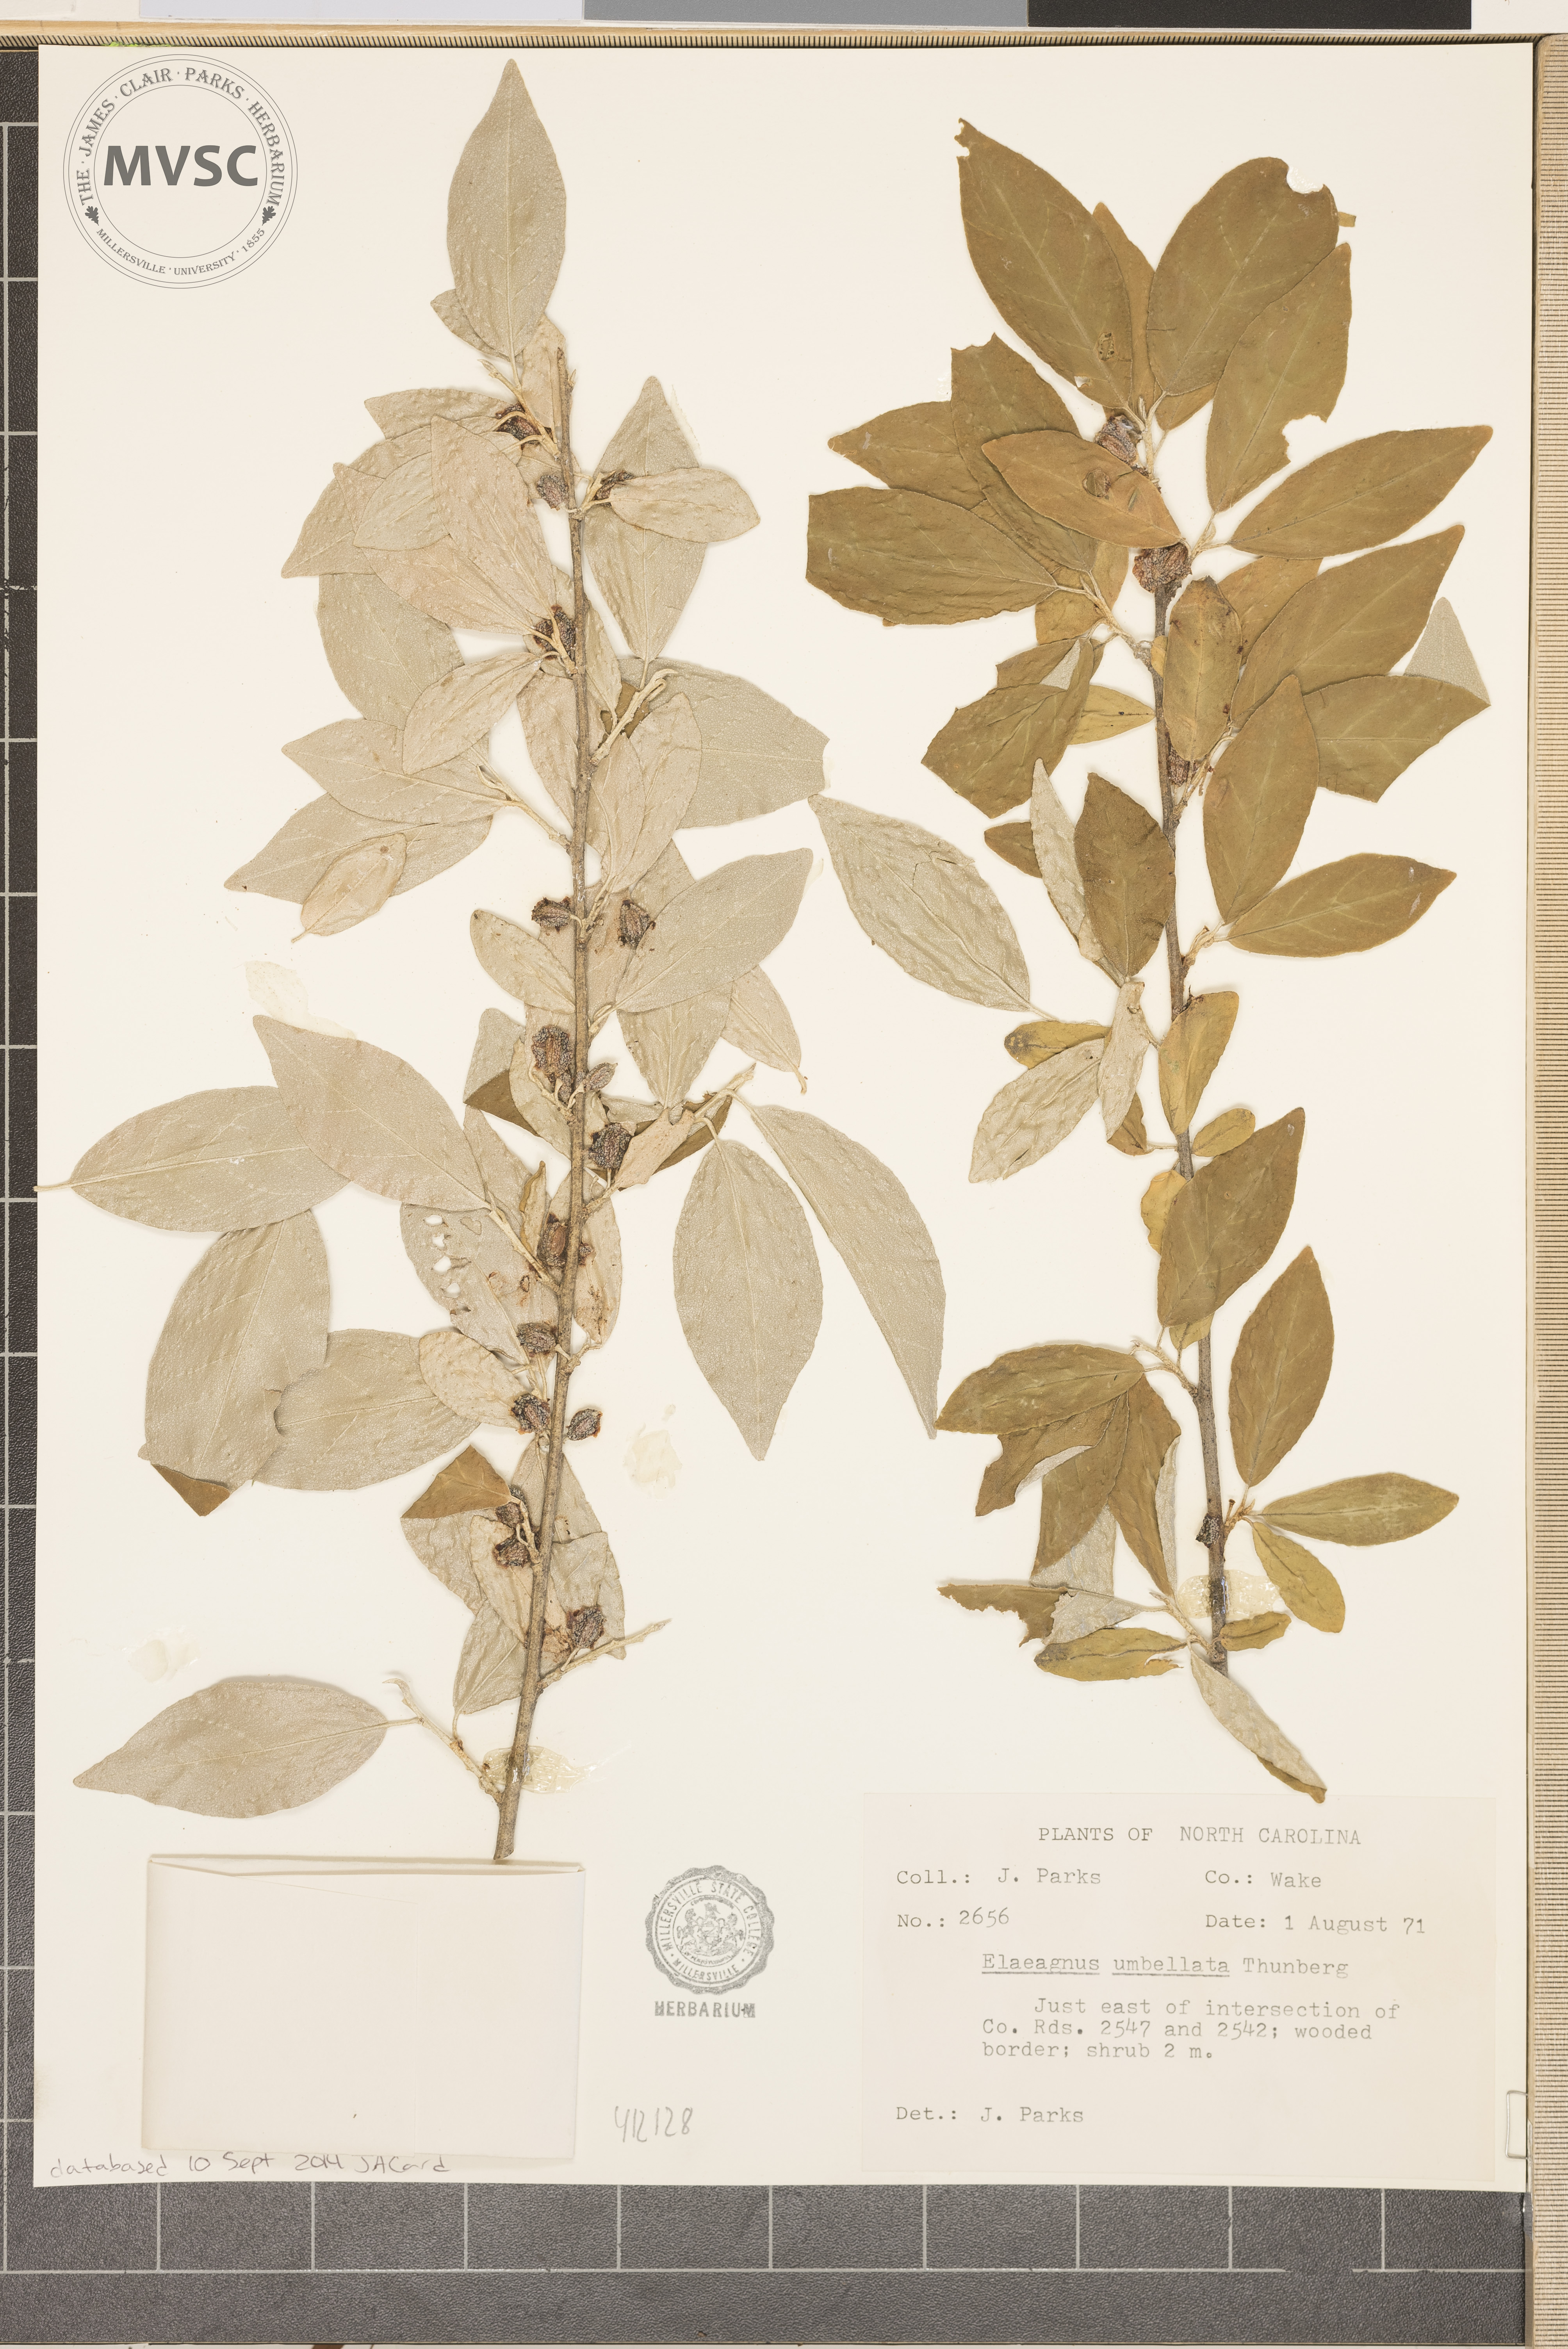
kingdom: Plantae
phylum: Tracheophyta
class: Magnoliopsida
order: Rosales
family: Elaeagnaceae
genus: Elaeagnus
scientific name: Elaeagnus umbellata
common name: Autumn olive
